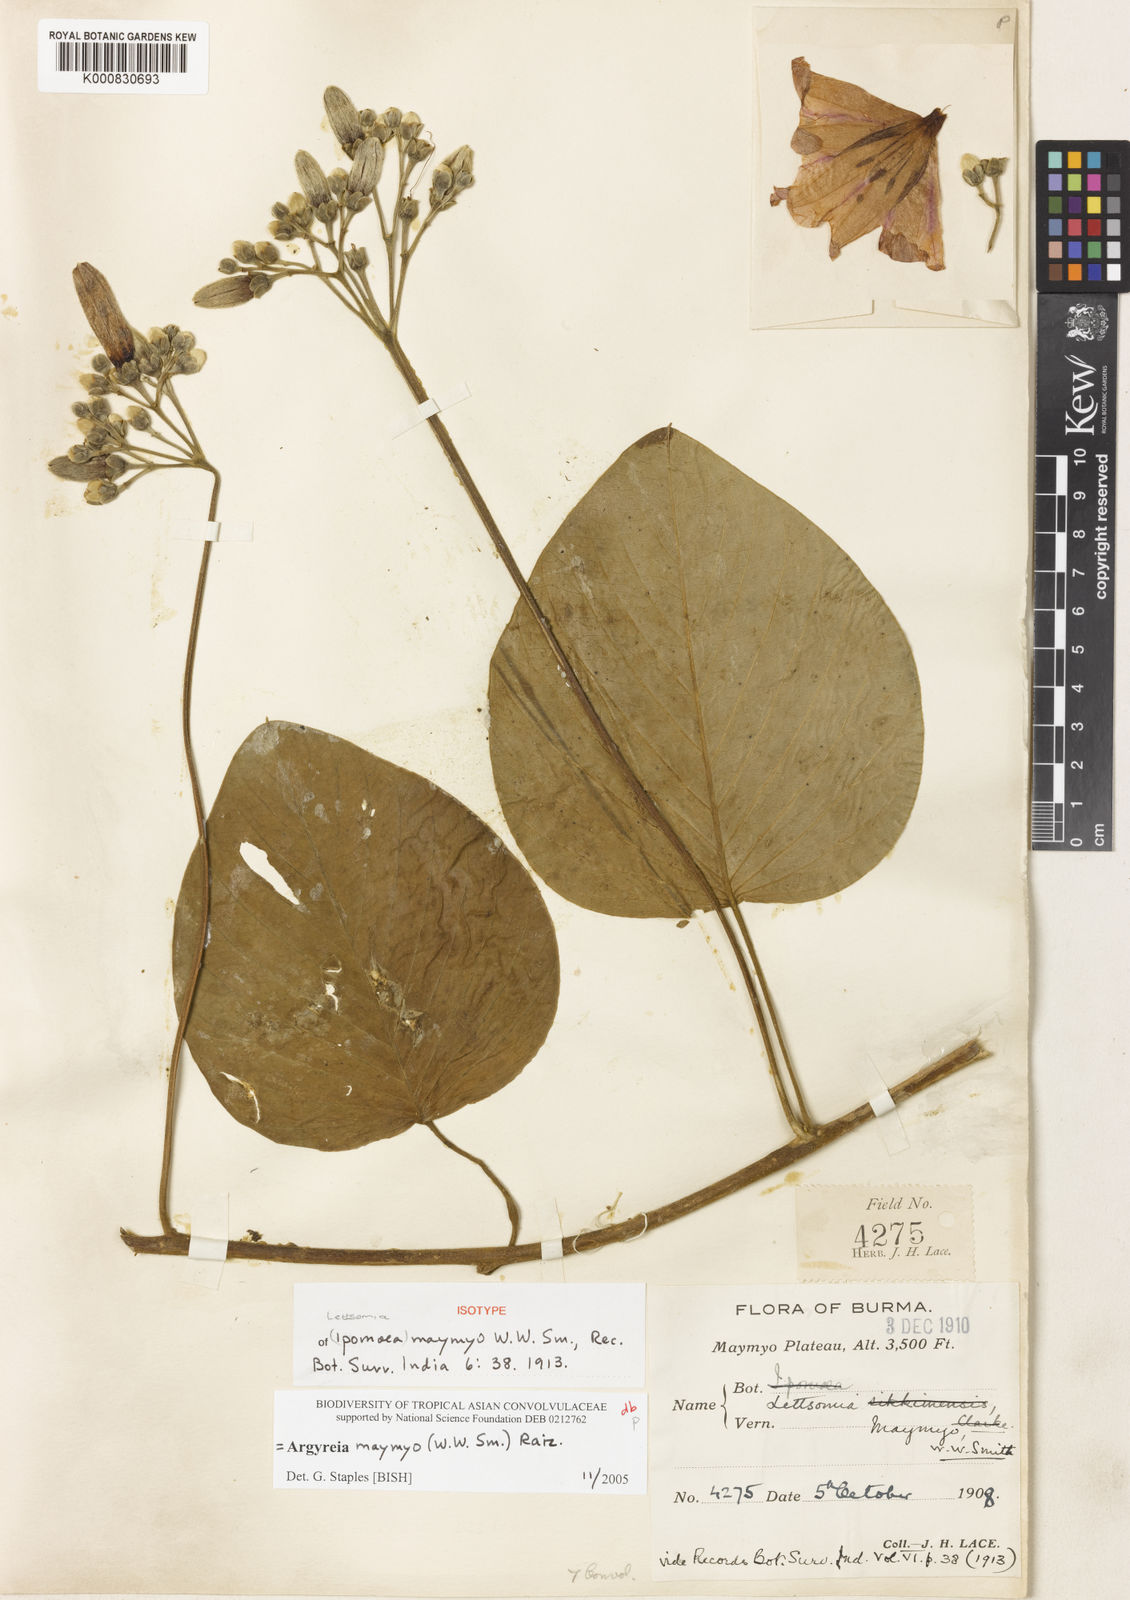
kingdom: Plantae
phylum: Tracheophyta
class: Magnoliopsida
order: Solanales
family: Convolvulaceae
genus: Argyreia
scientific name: Argyreia melvillei
